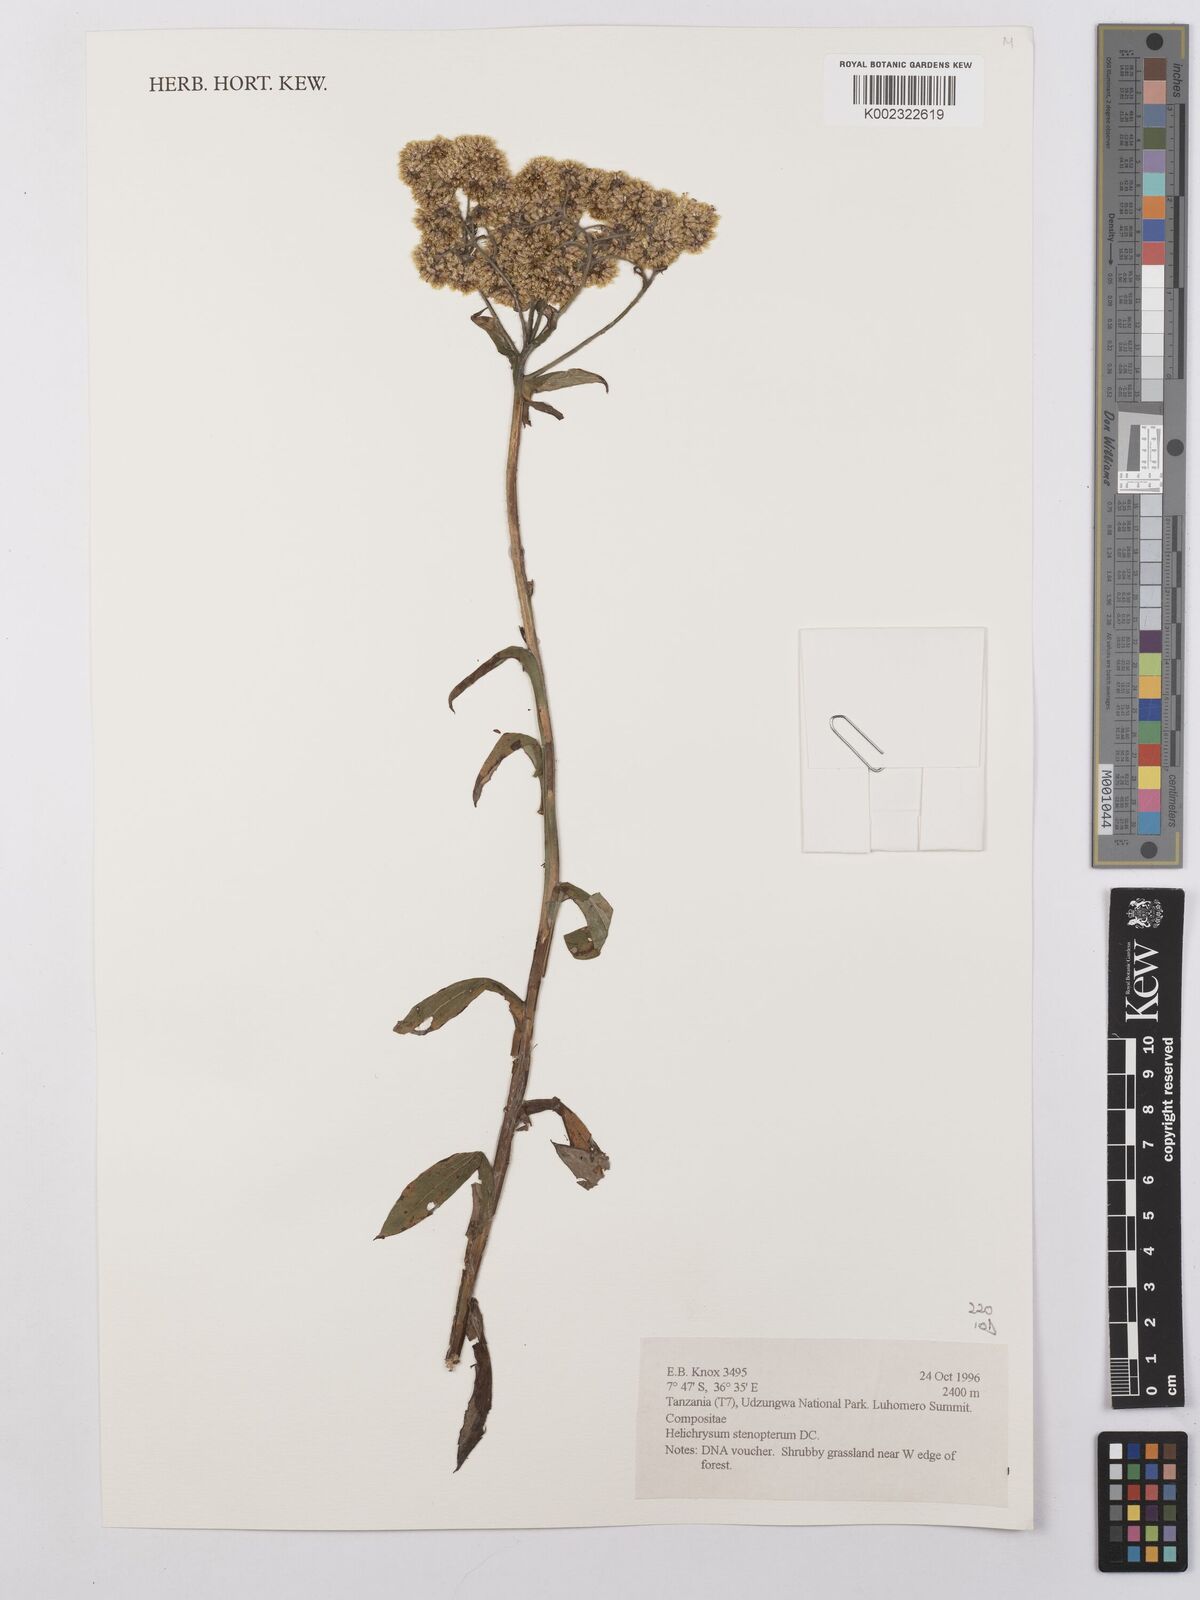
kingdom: Plantae
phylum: Tracheophyta
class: Magnoliopsida
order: Asterales
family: Asteraceae
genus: Helichrysum
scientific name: Helichrysum stenopterum
